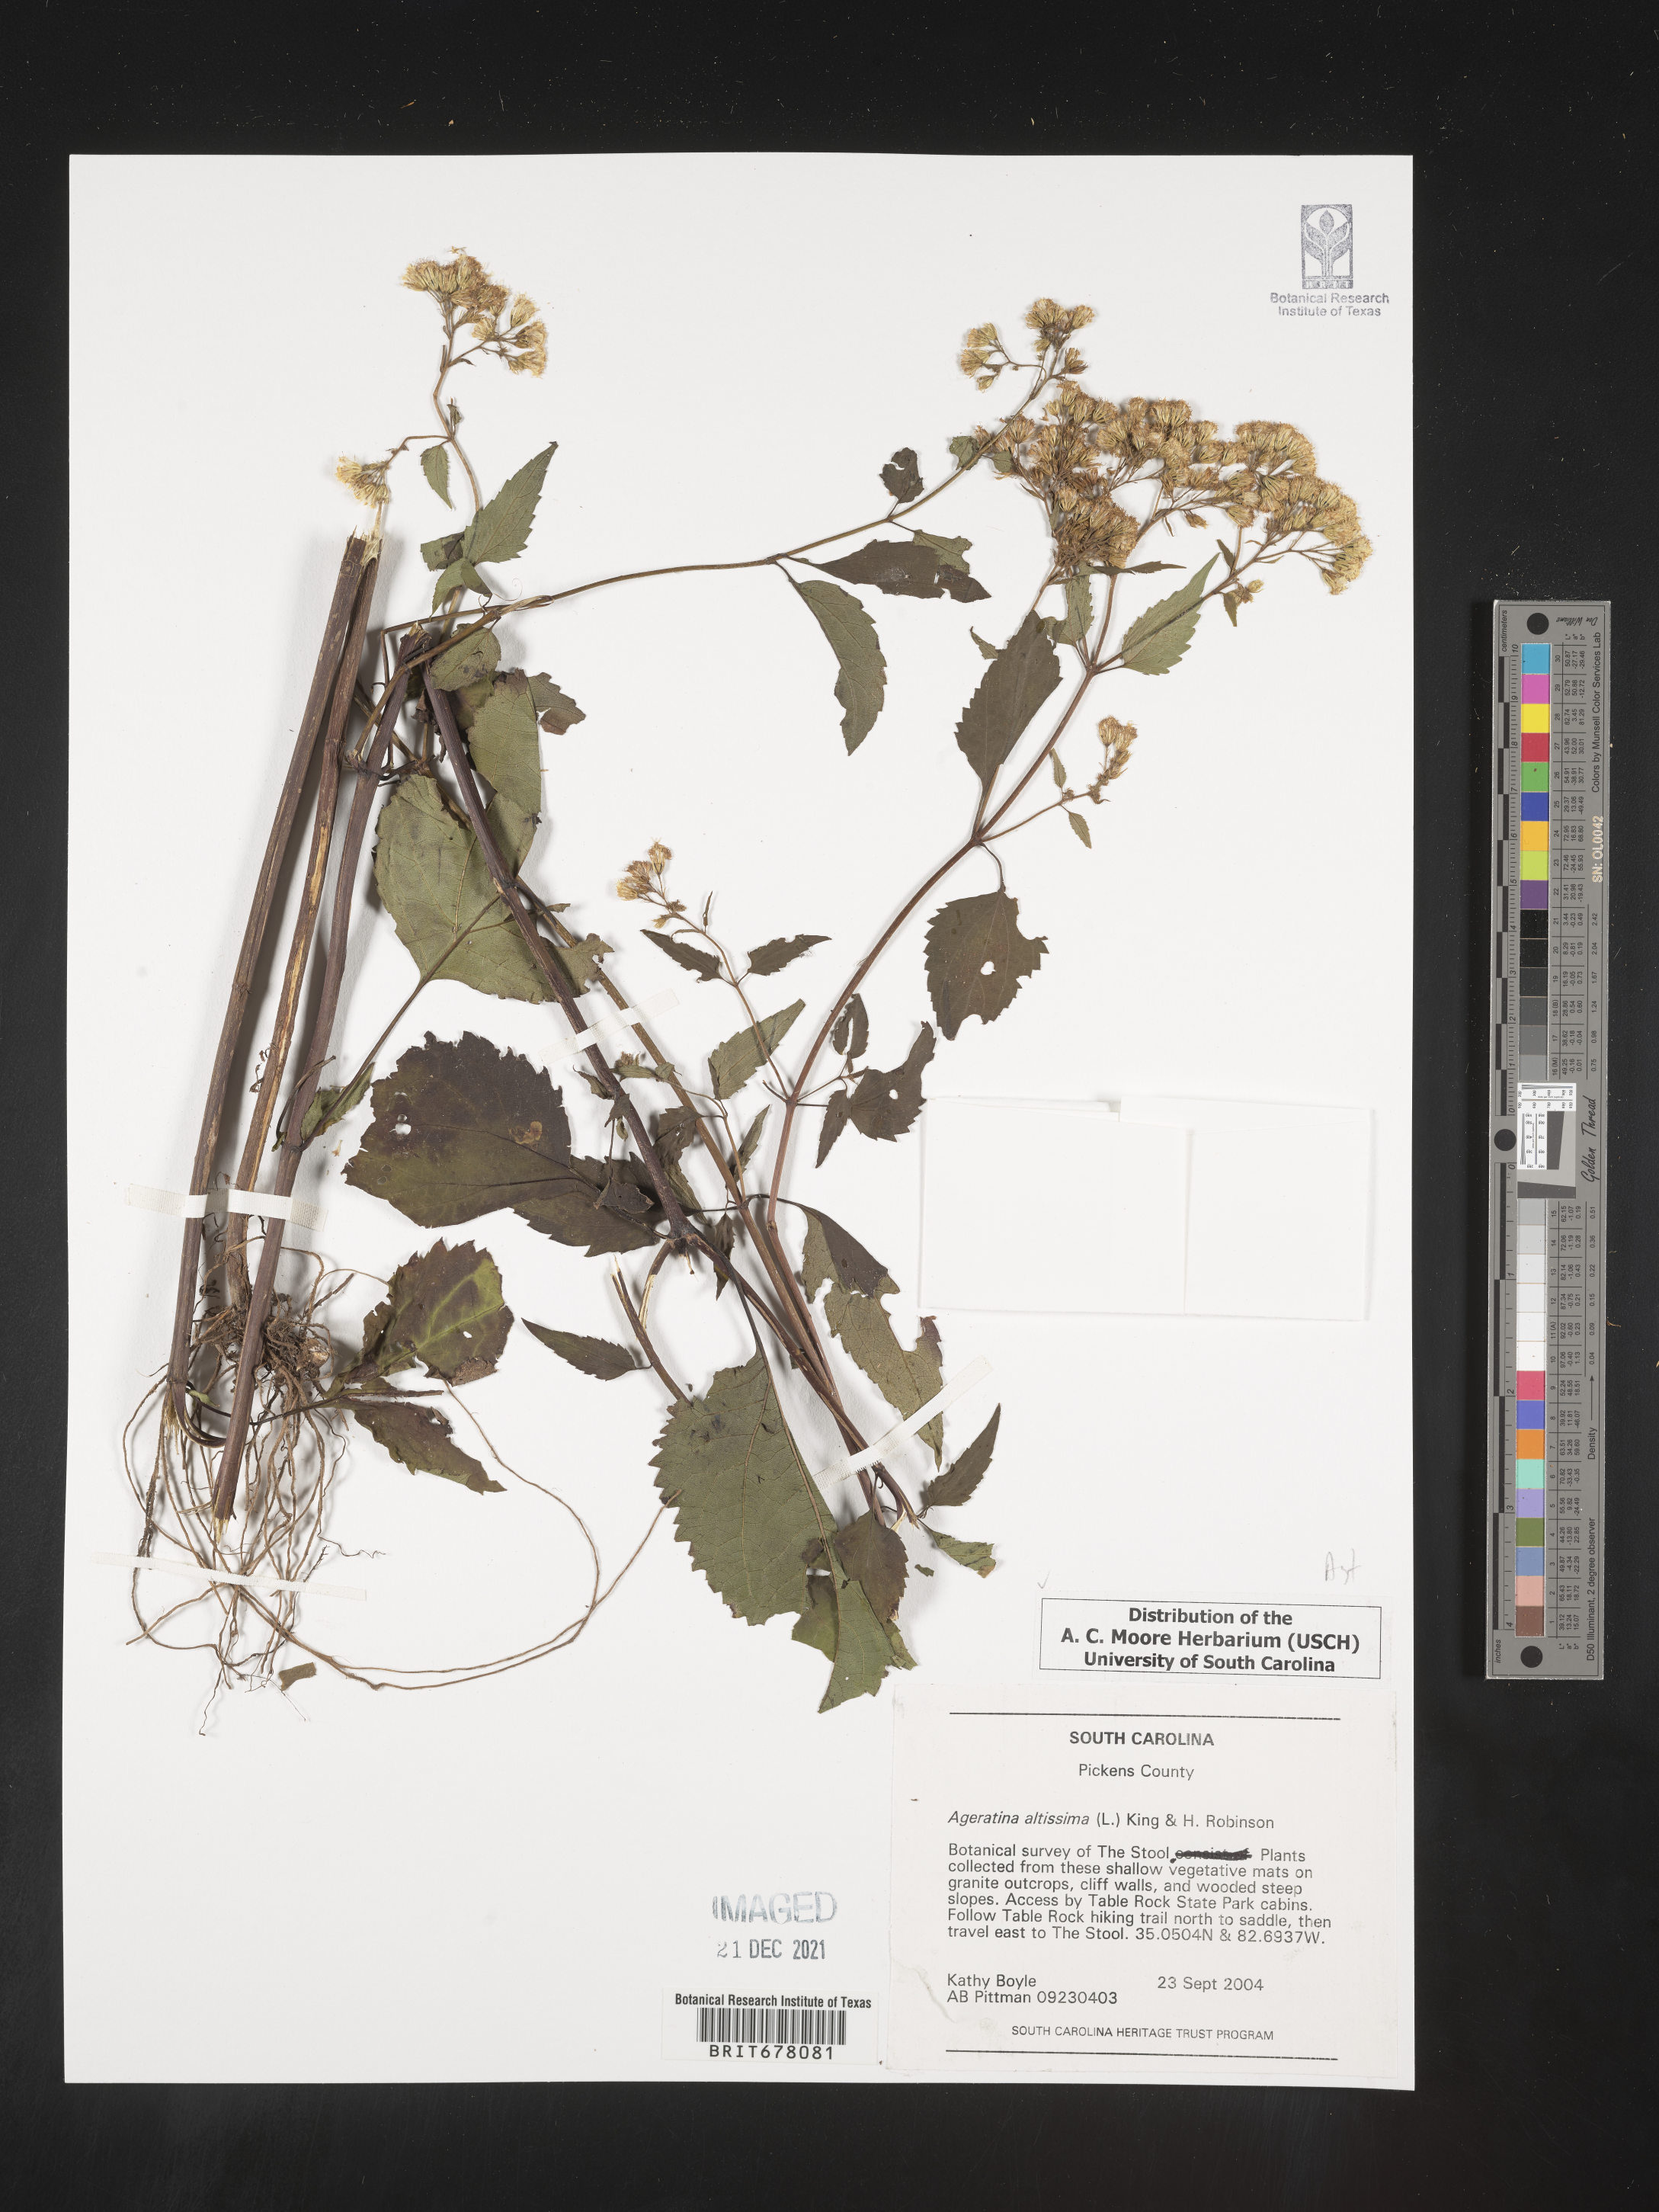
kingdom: Plantae
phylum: Tracheophyta
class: Magnoliopsida
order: Asterales
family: Asteraceae
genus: Eupatorium
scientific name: Eupatorium
